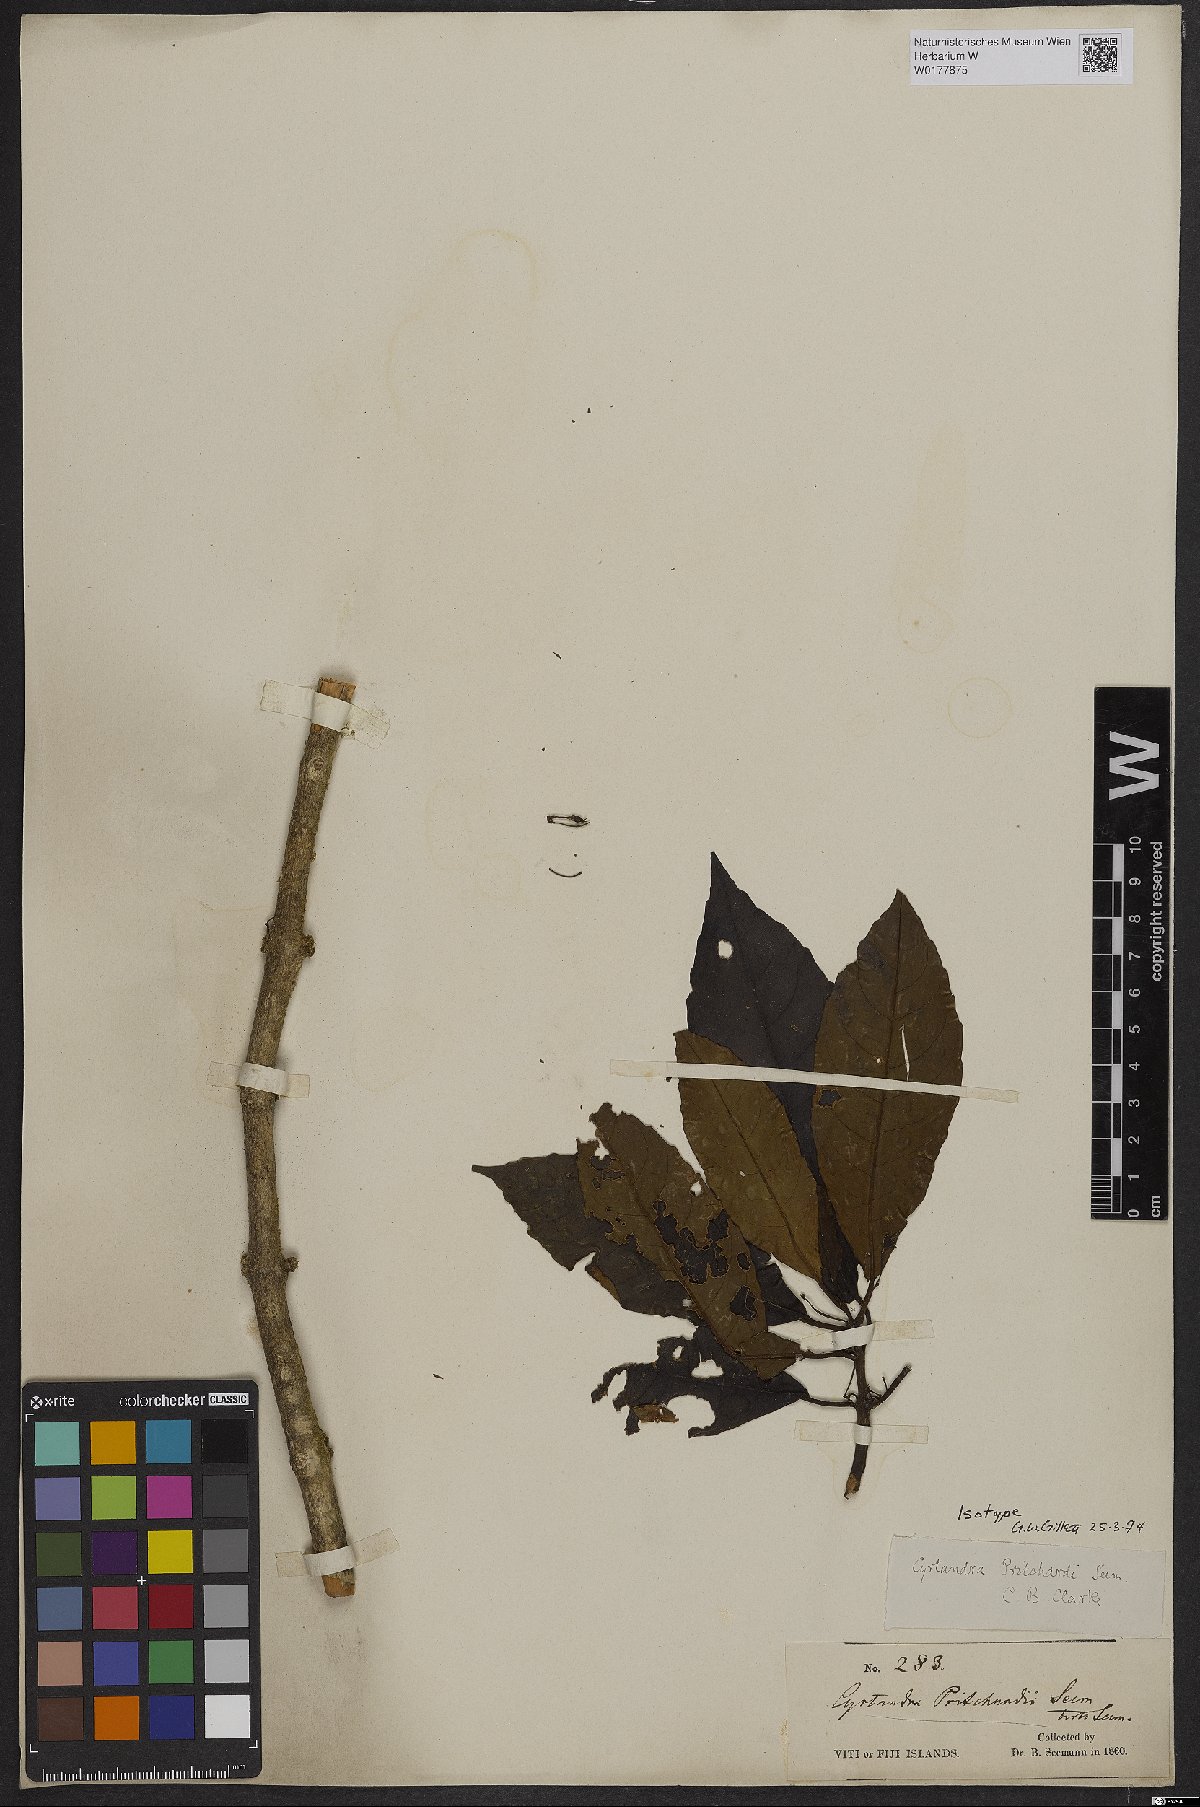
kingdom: Plantae
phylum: Tracheophyta
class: Magnoliopsida
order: Lamiales
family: Gesneriaceae
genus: Cyrtandra
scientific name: Cyrtandra
